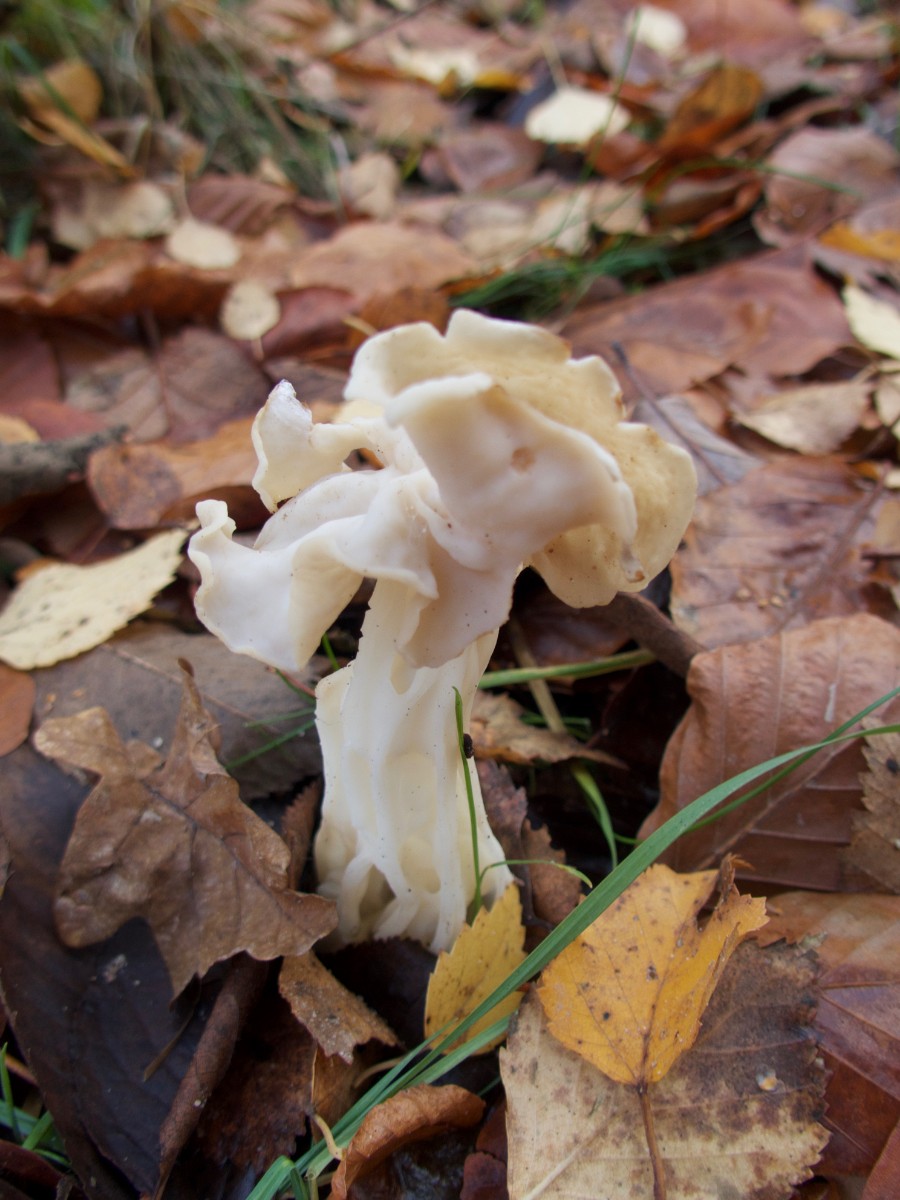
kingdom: Fungi
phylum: Ascomycota
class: Pezizomycetes
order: Pezizales
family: Helvellaceae
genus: Helvella
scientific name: Helvella crispa
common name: kruset foldhat
